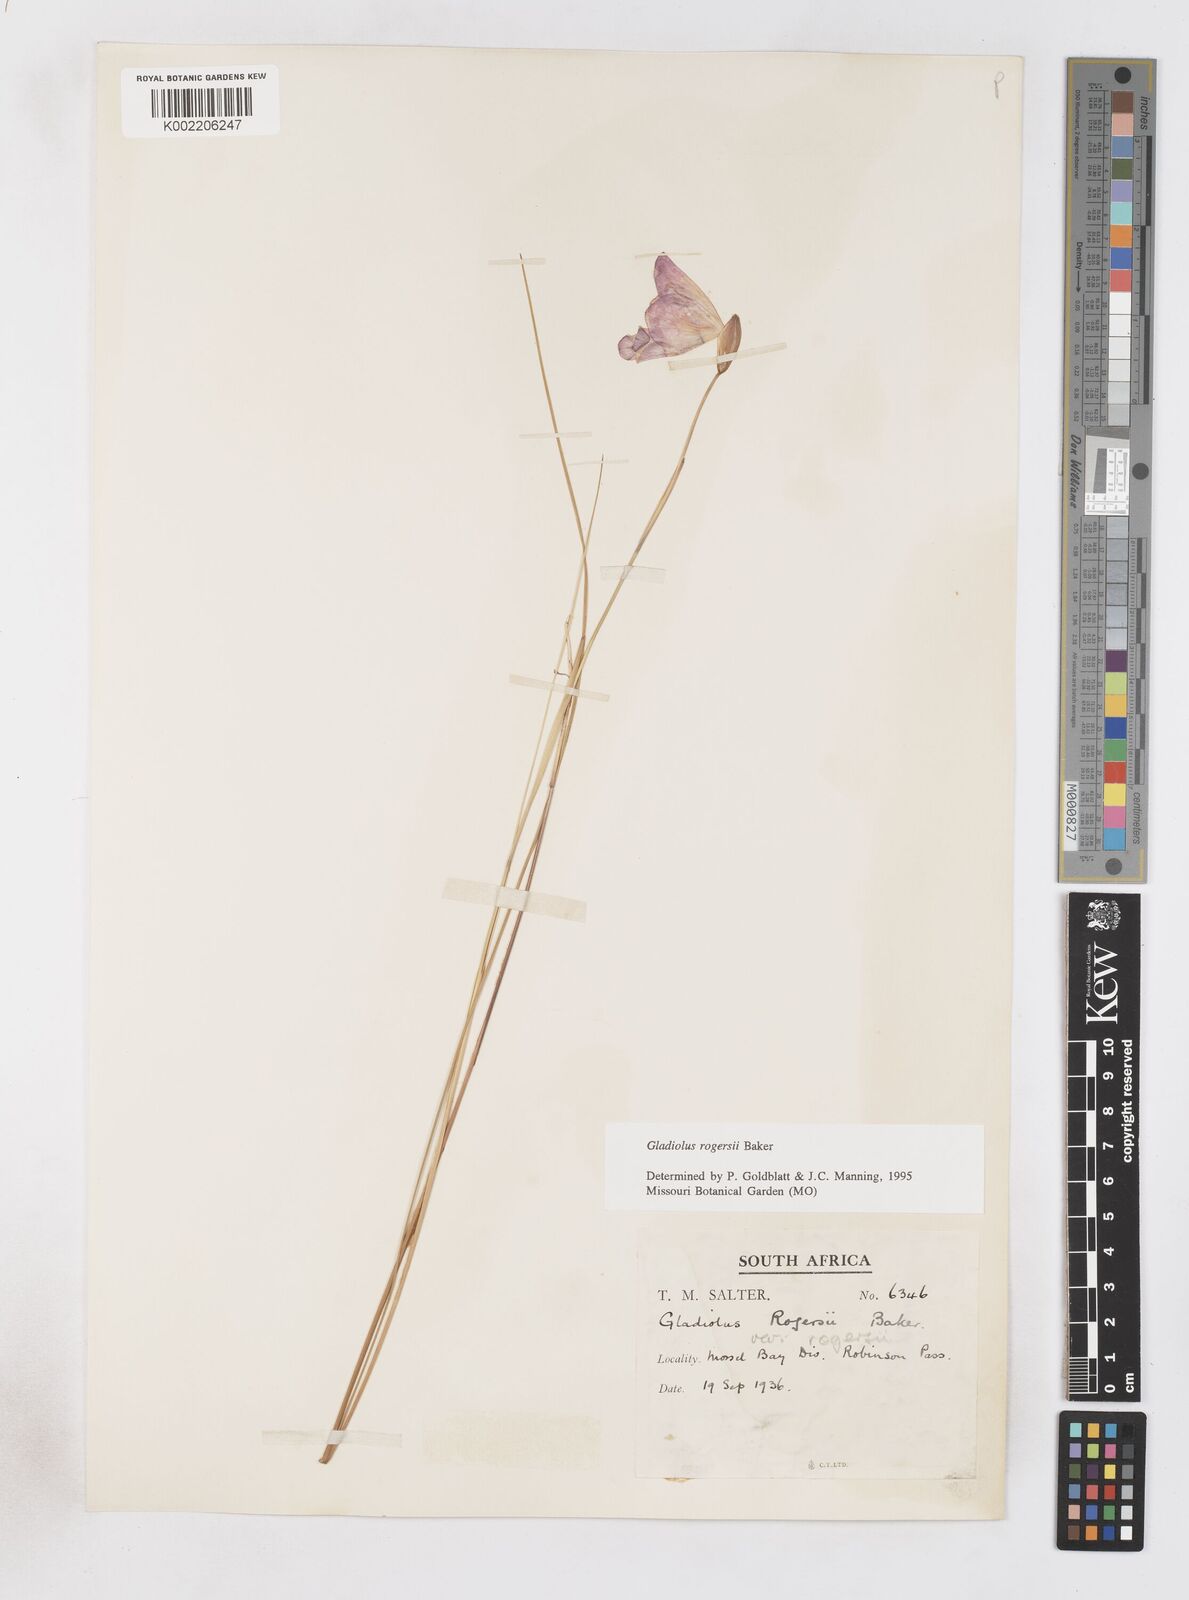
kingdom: Plantae
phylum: Tracheophyta
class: Liliopsida
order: Asparagales
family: Iridaceae
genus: Gladiolus
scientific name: Gladiolus rogersii
